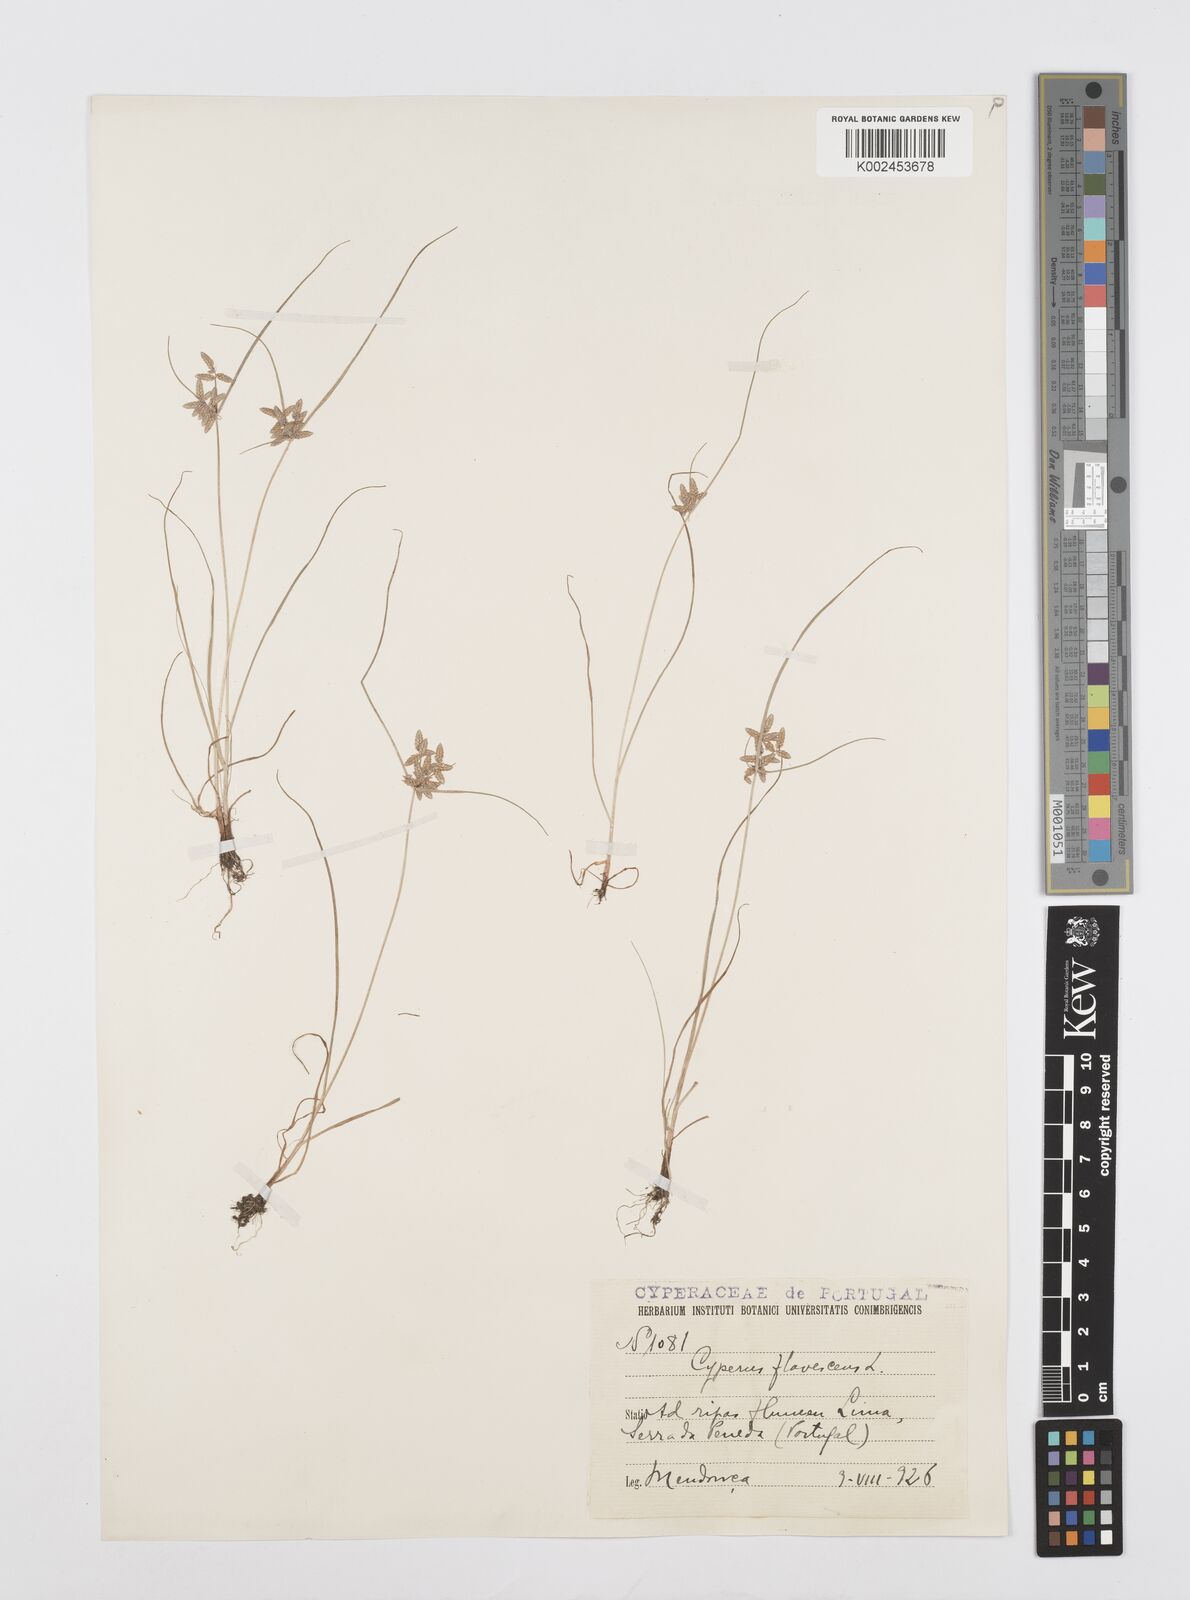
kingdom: Plantae
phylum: Tracheophyta
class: Liliopsida
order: Poales
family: Cyperaceae
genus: Cyperus
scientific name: Cyperus flavescens
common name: Yellow galingale
